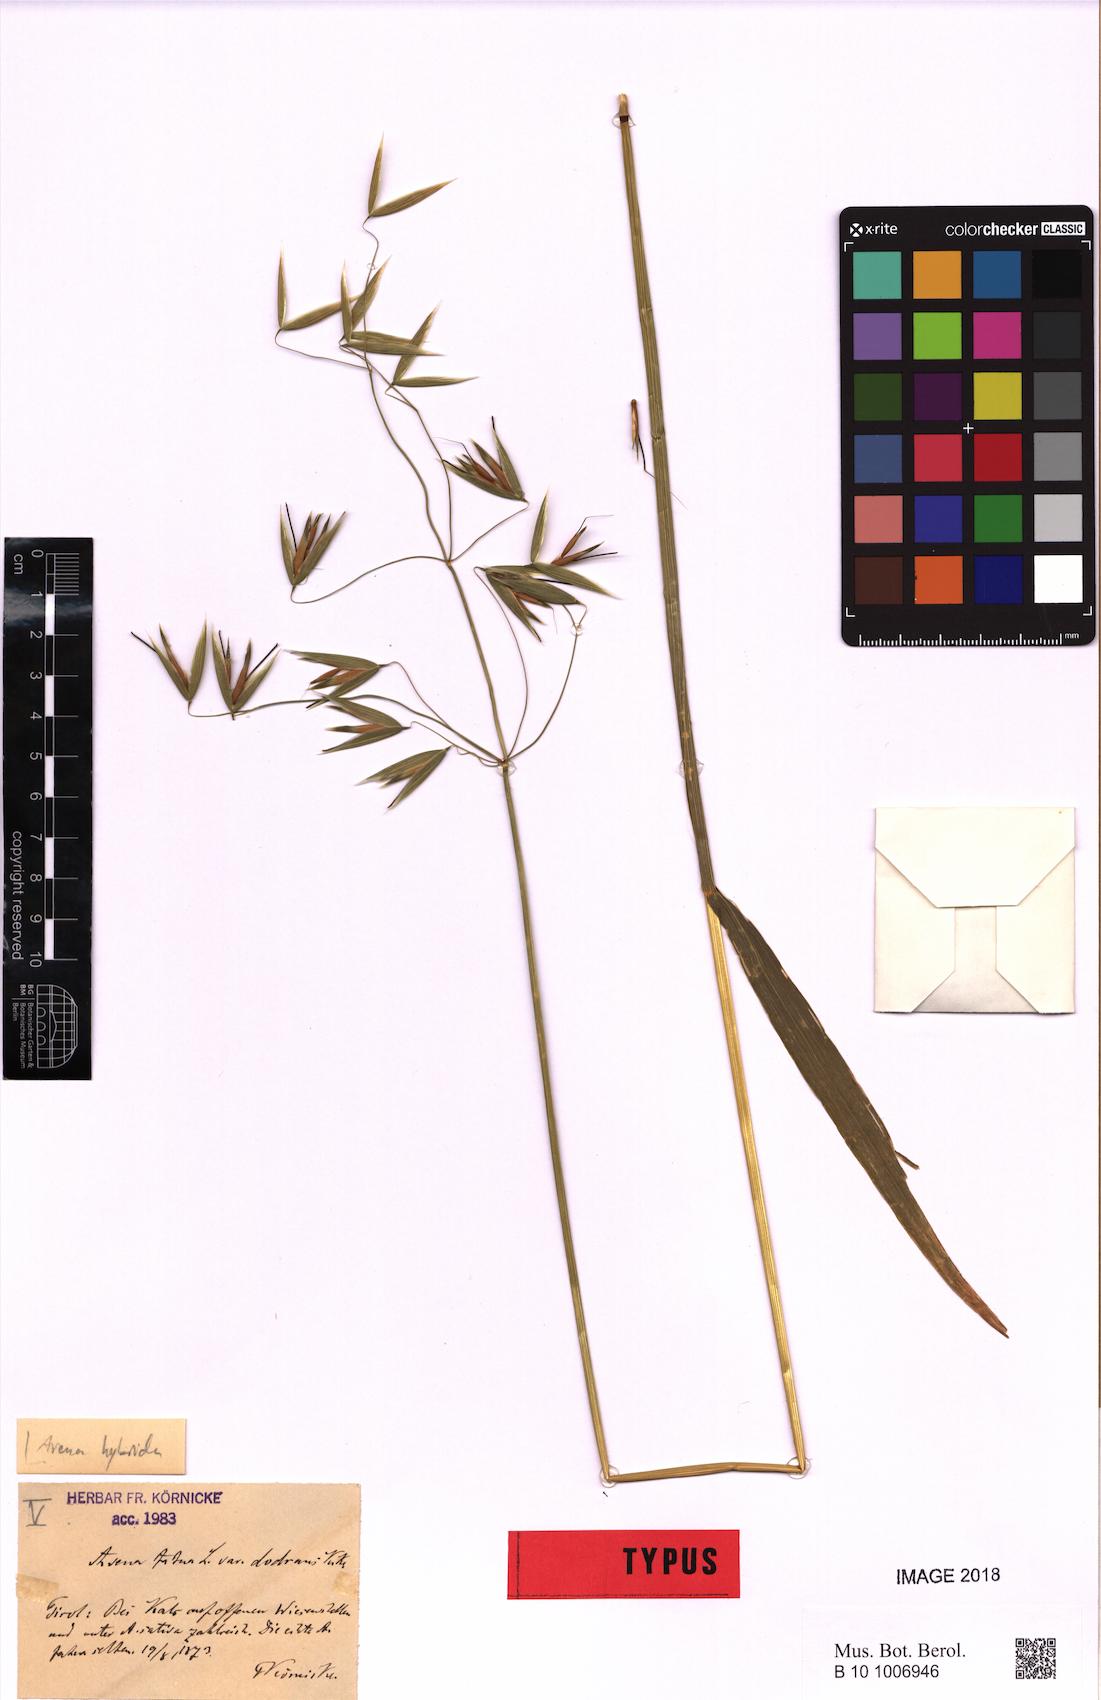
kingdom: Plantae
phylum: Tracheophyta
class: Liliopsida
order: Poales
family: Poaceae
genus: Avena
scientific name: Avena hybrida
